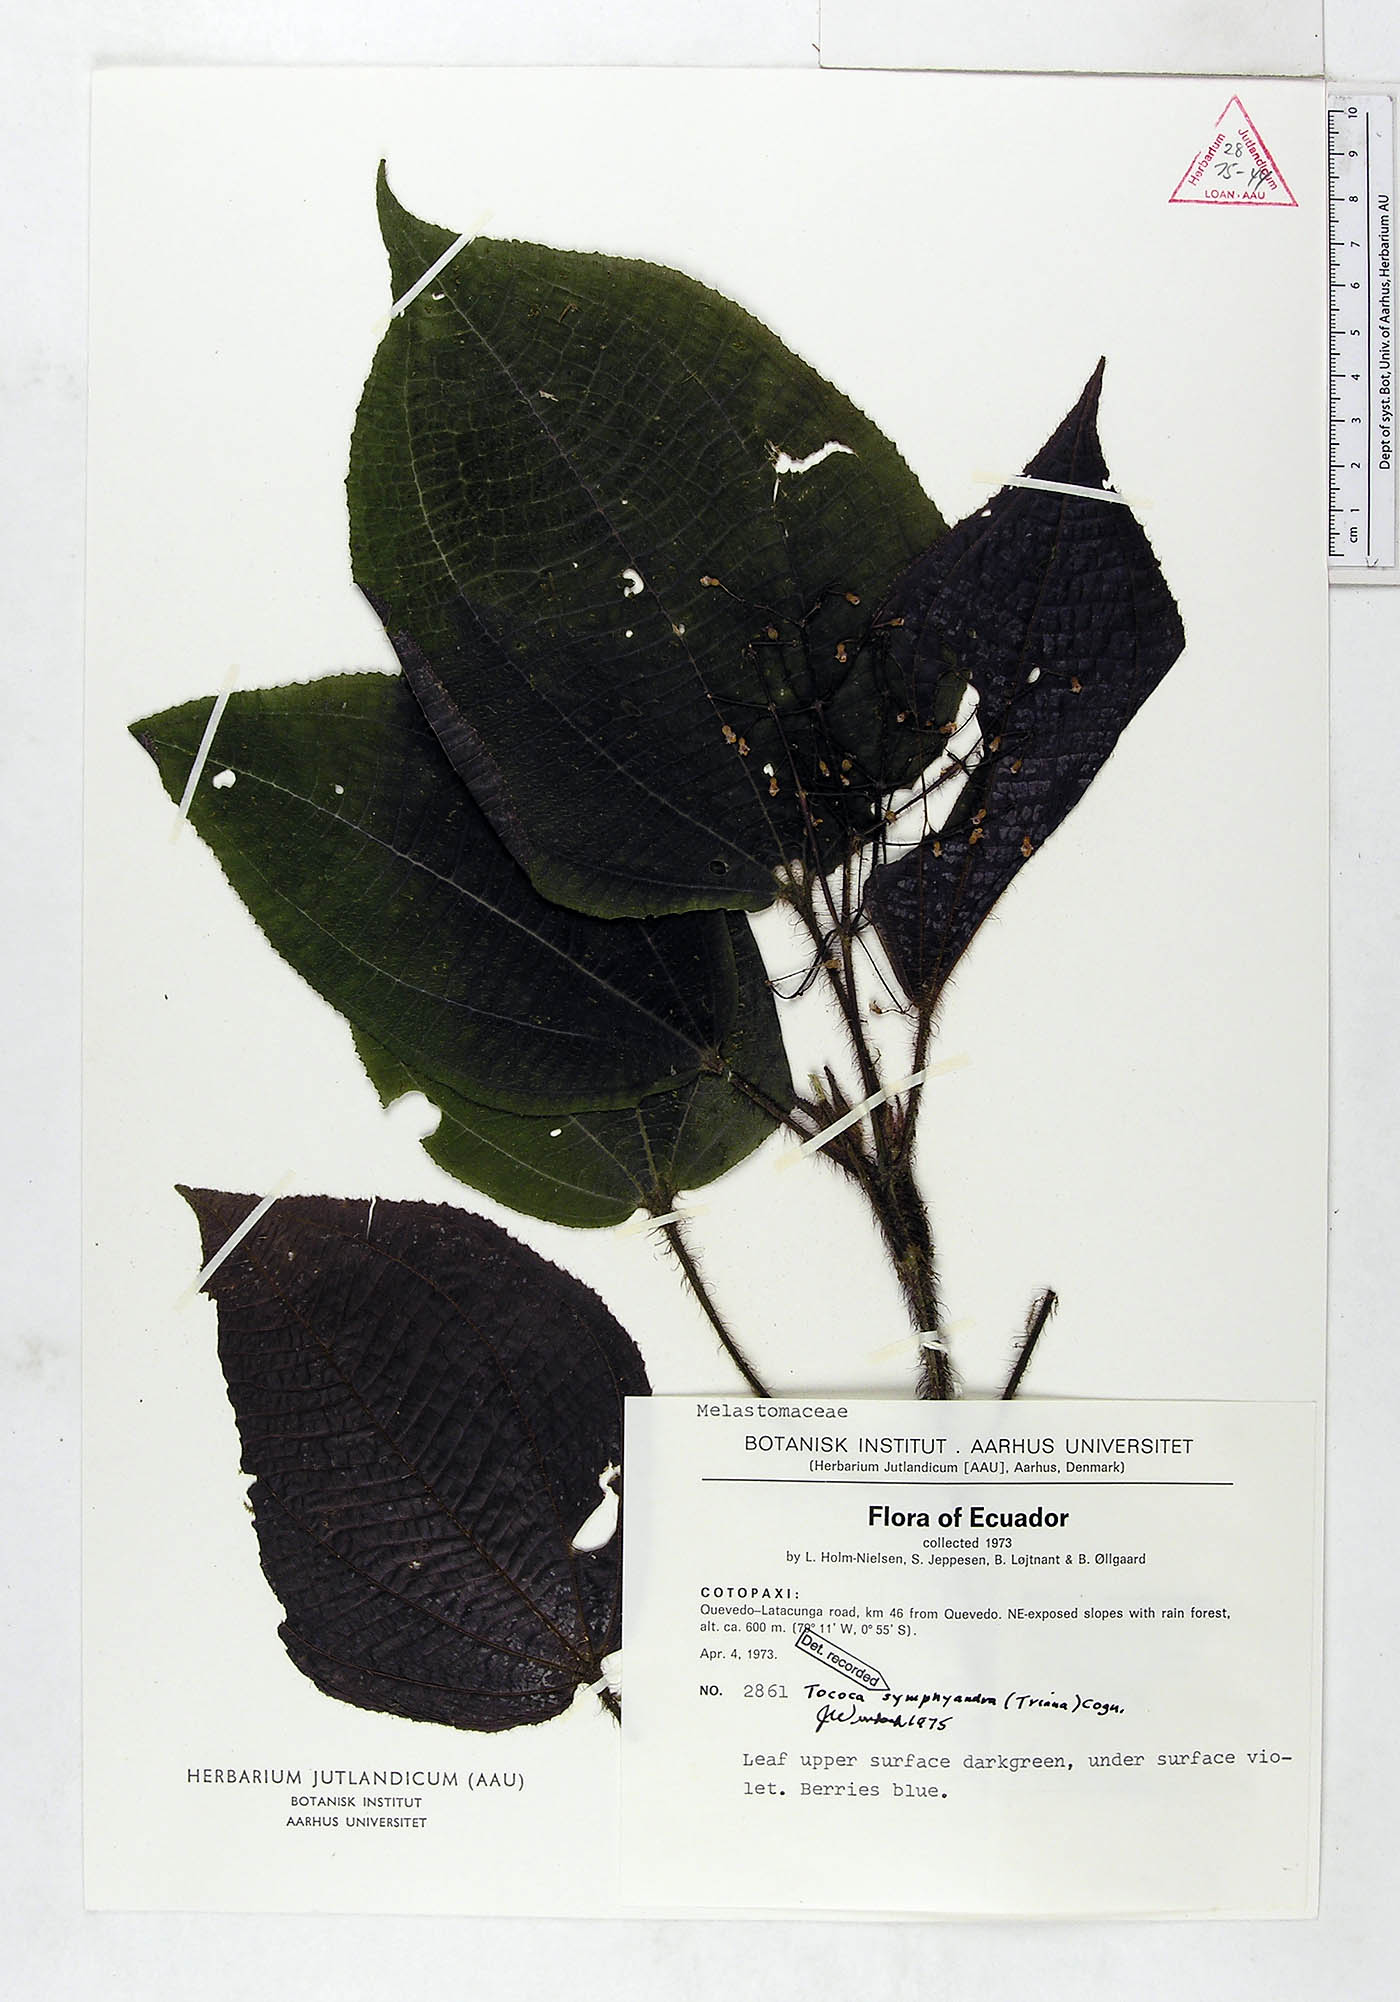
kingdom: Plantae
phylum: Tracheophyta
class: Magnoliopsida
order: Myrtales
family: Melastomataceae
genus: Miconia
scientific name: Miconia symphyandra
